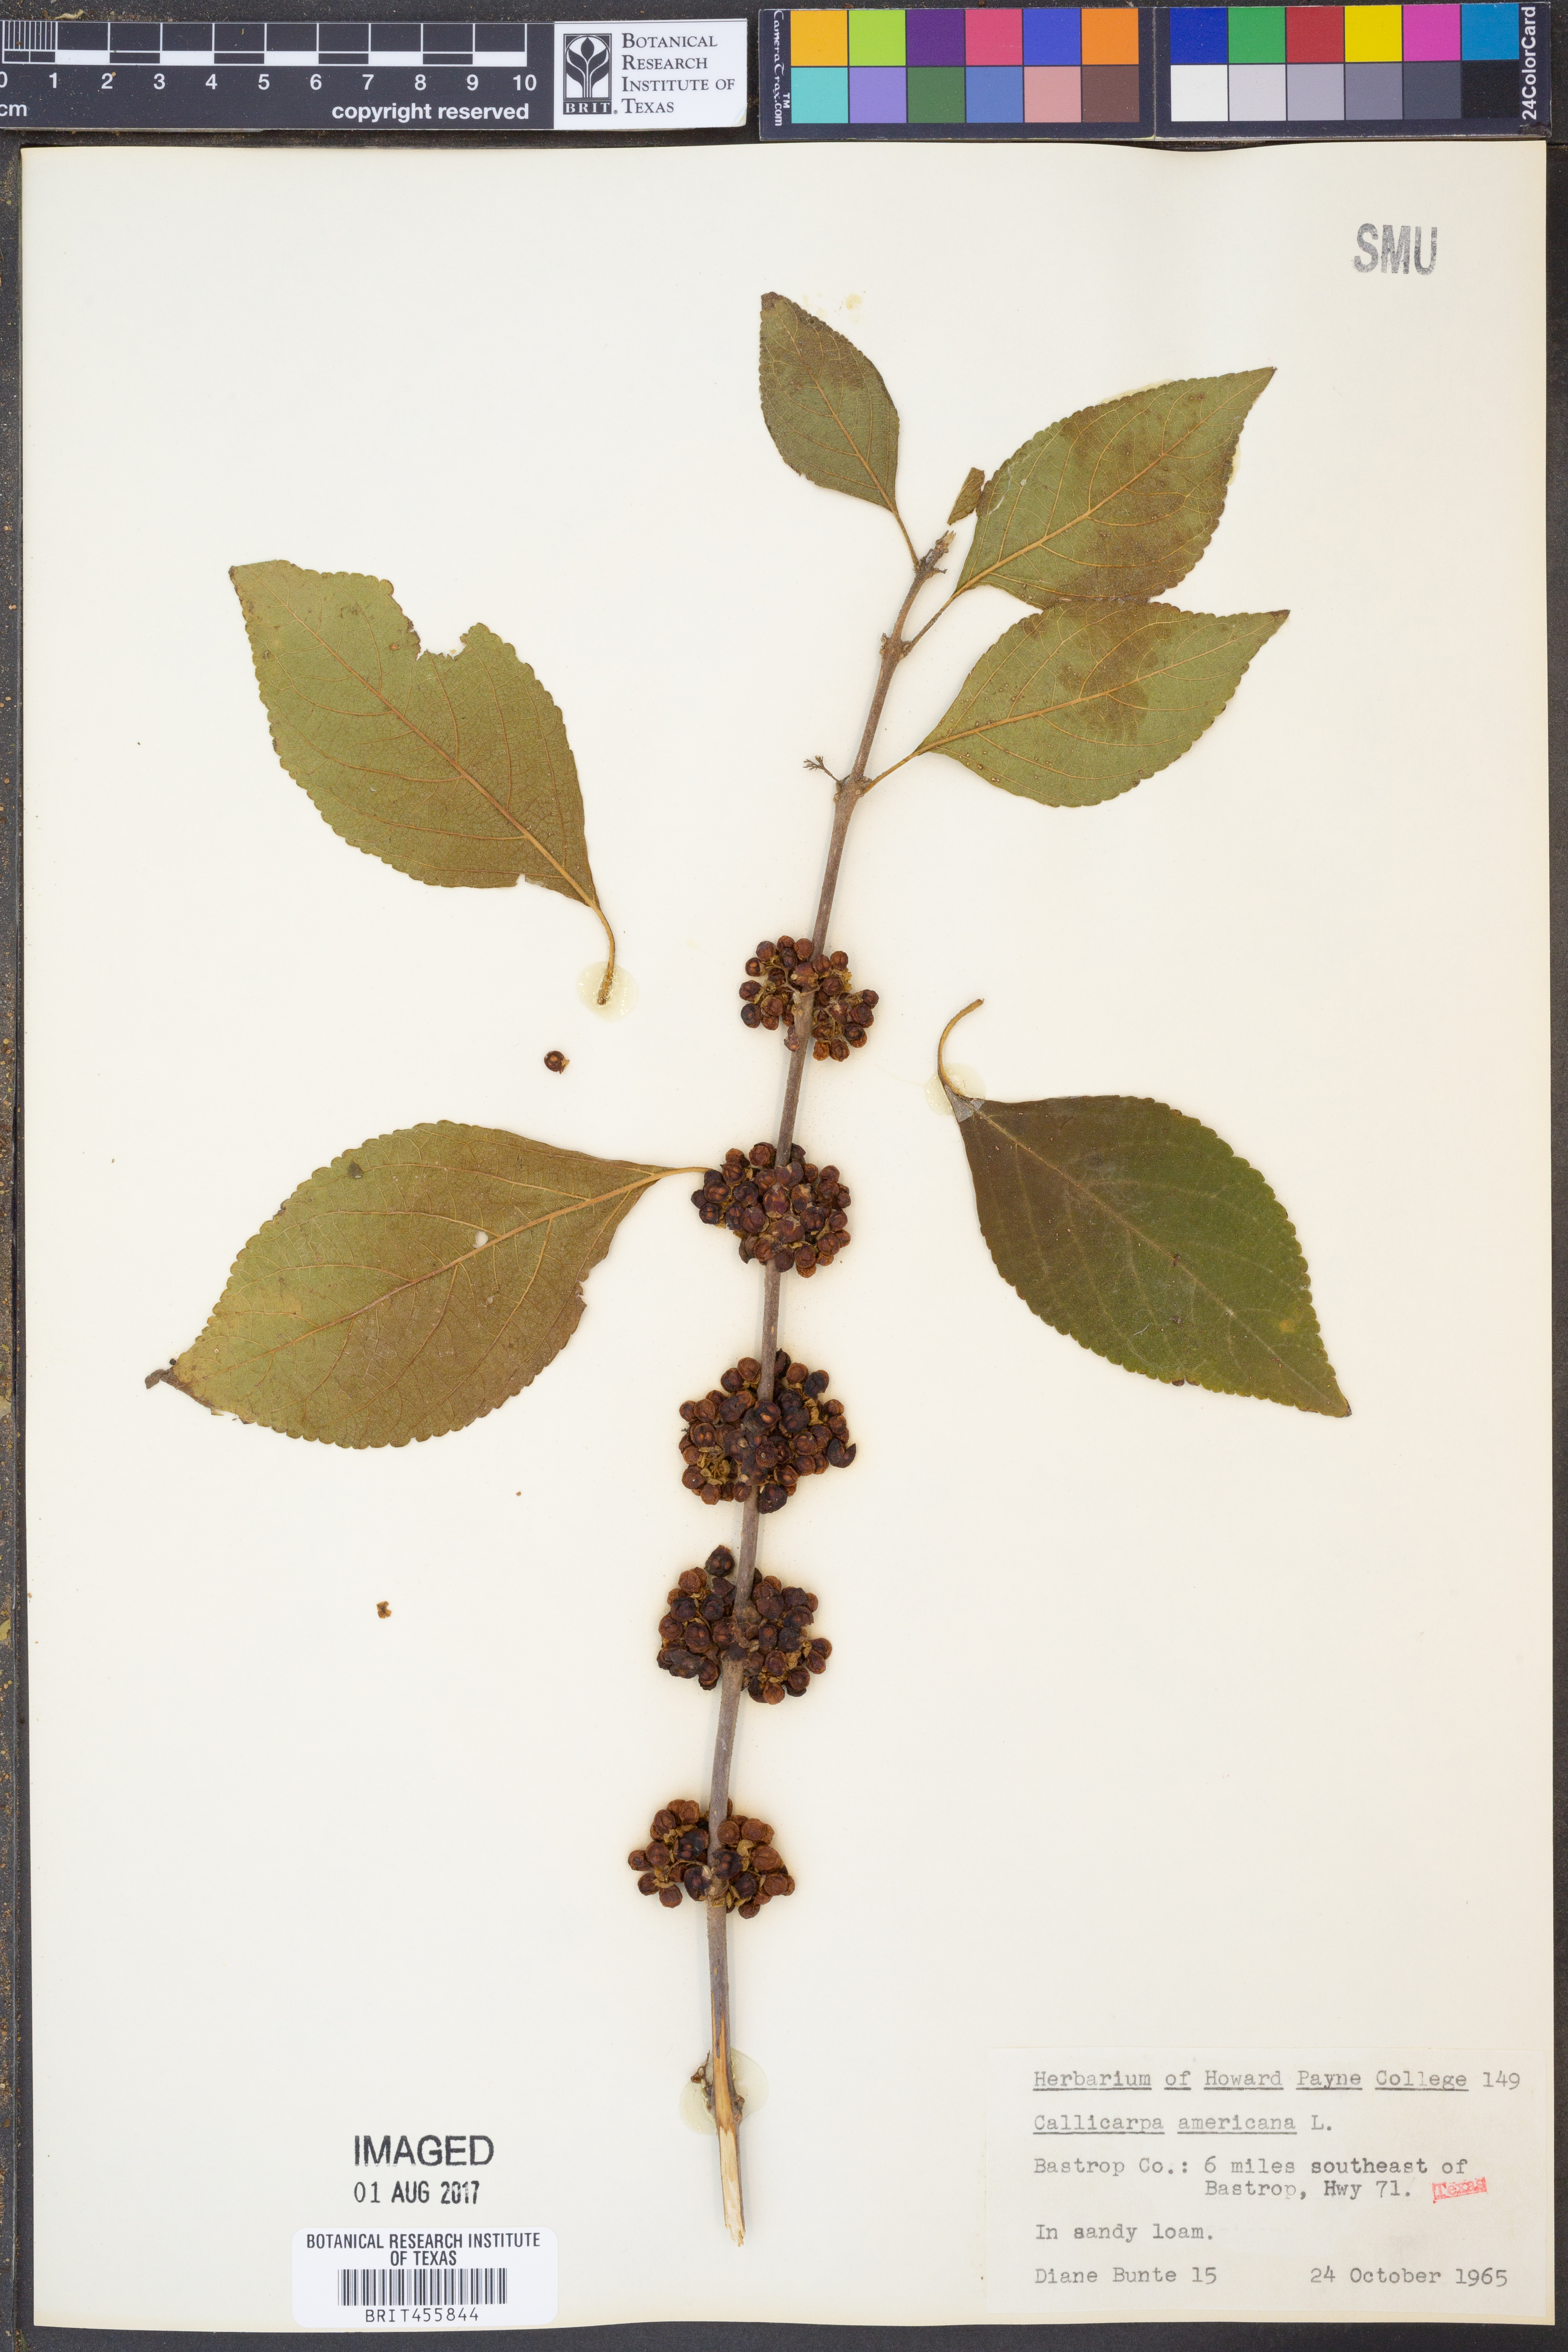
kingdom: Plantae
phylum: Tracheophyta
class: Magnoliopsida
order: Lamiales
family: Lamiaceae
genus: Callicarpa
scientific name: Callicarpa americana
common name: American beautyberry
